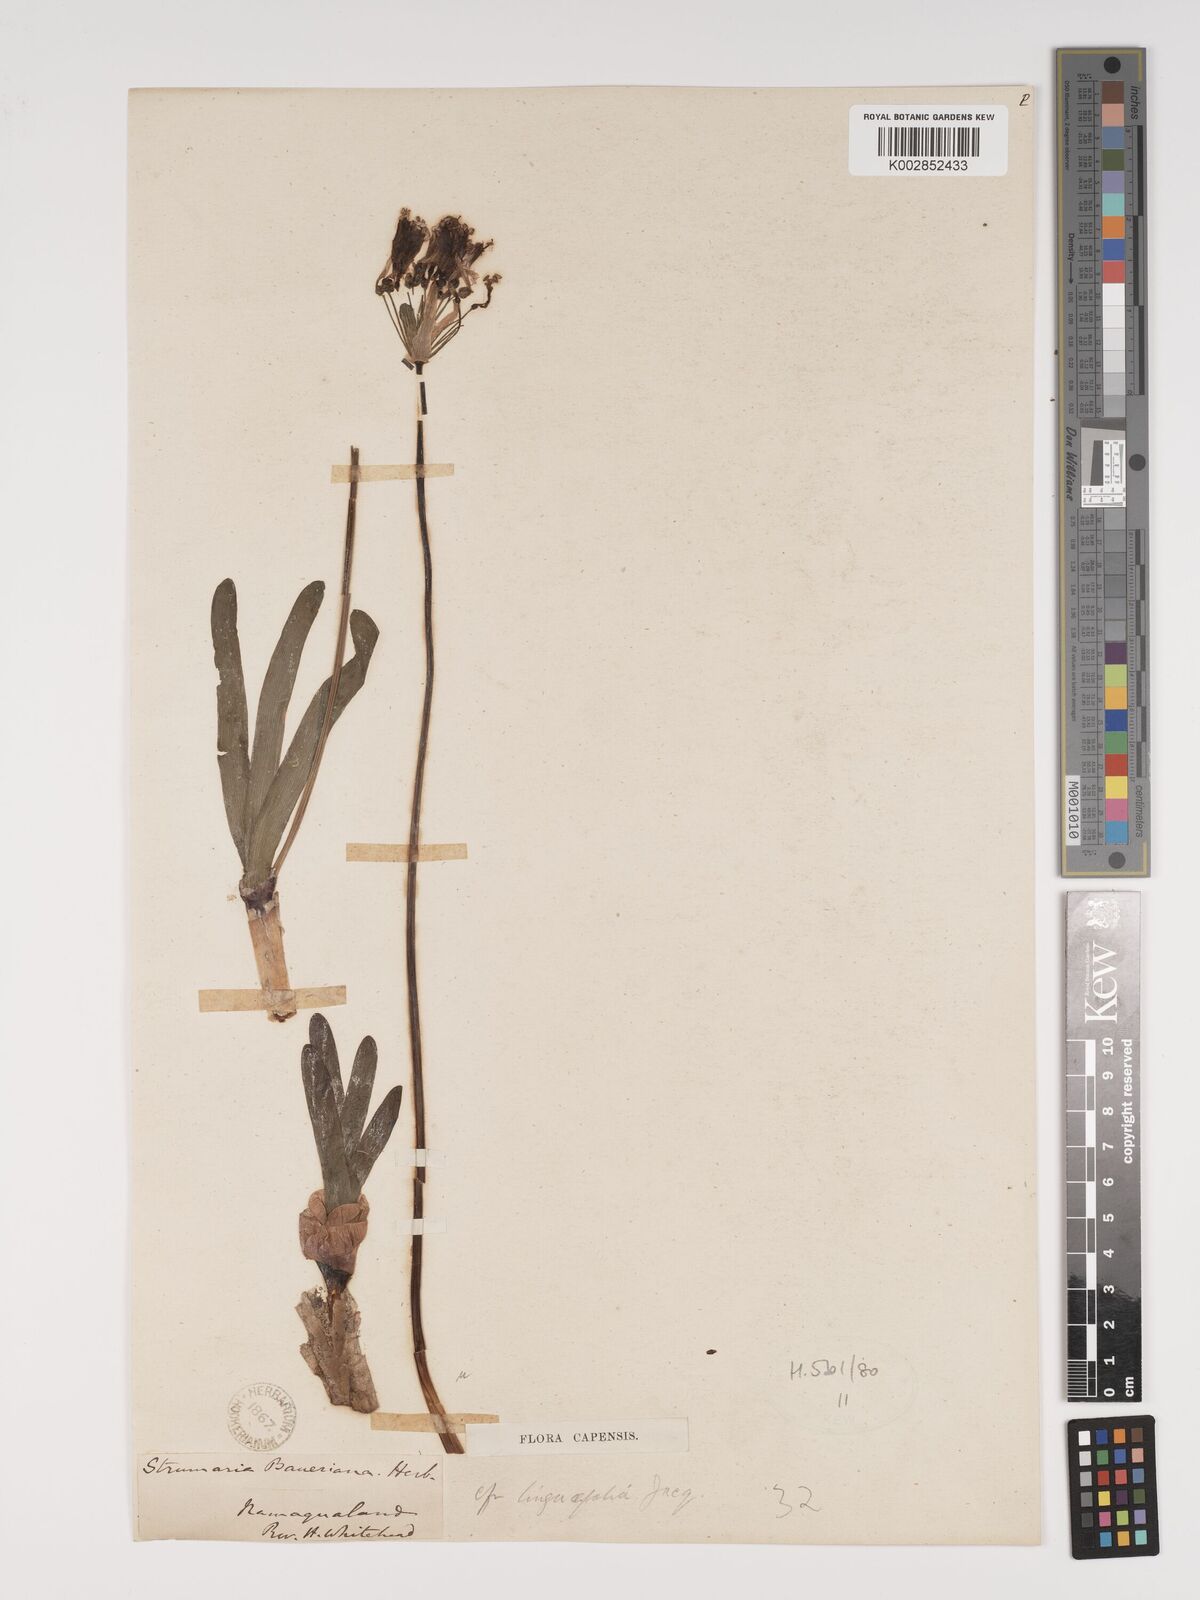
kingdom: Plantae
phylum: Tracheophyta
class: Liliopsida
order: Asparagales
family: Amaryllidaceae
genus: Strumaria
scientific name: Strumaria truncata
